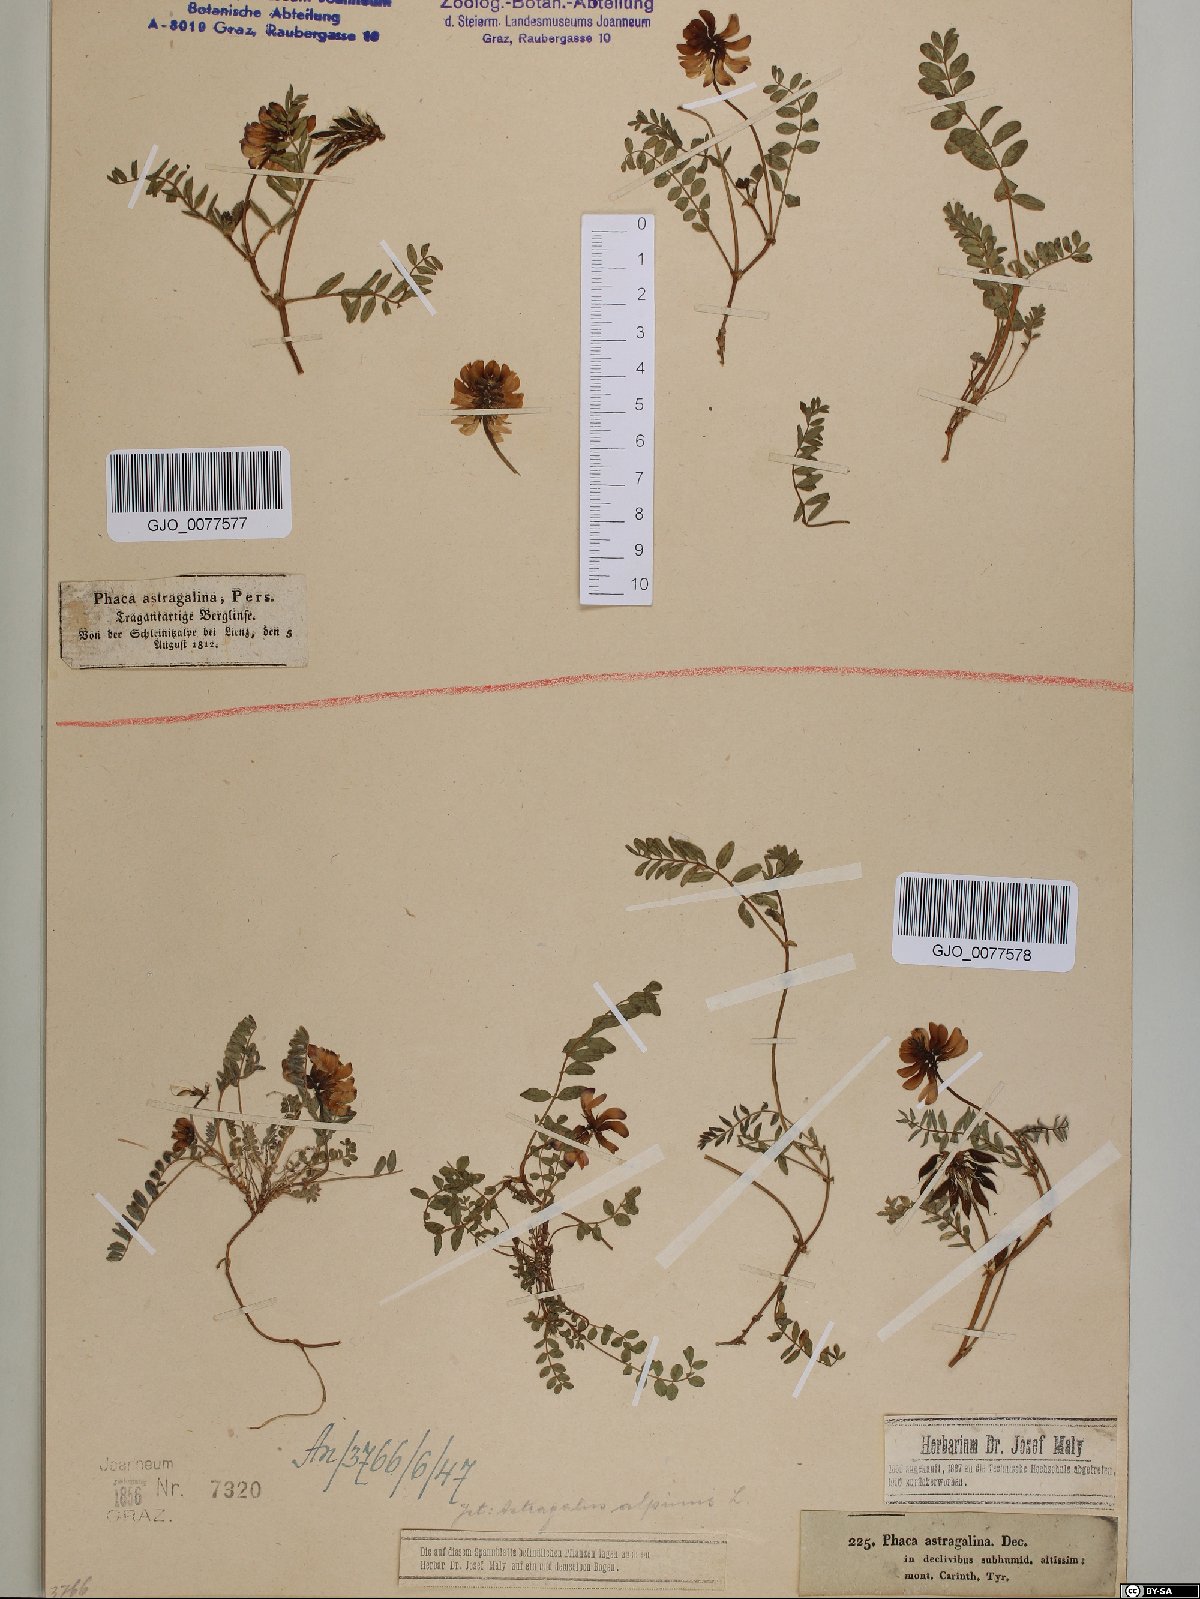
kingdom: Plantae
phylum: Tracheophyta
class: Magnoliopsida
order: Fabales
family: Fabaceae
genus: Astragalus
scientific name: Astragalus alpinus
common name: Alpine milk-vetch
